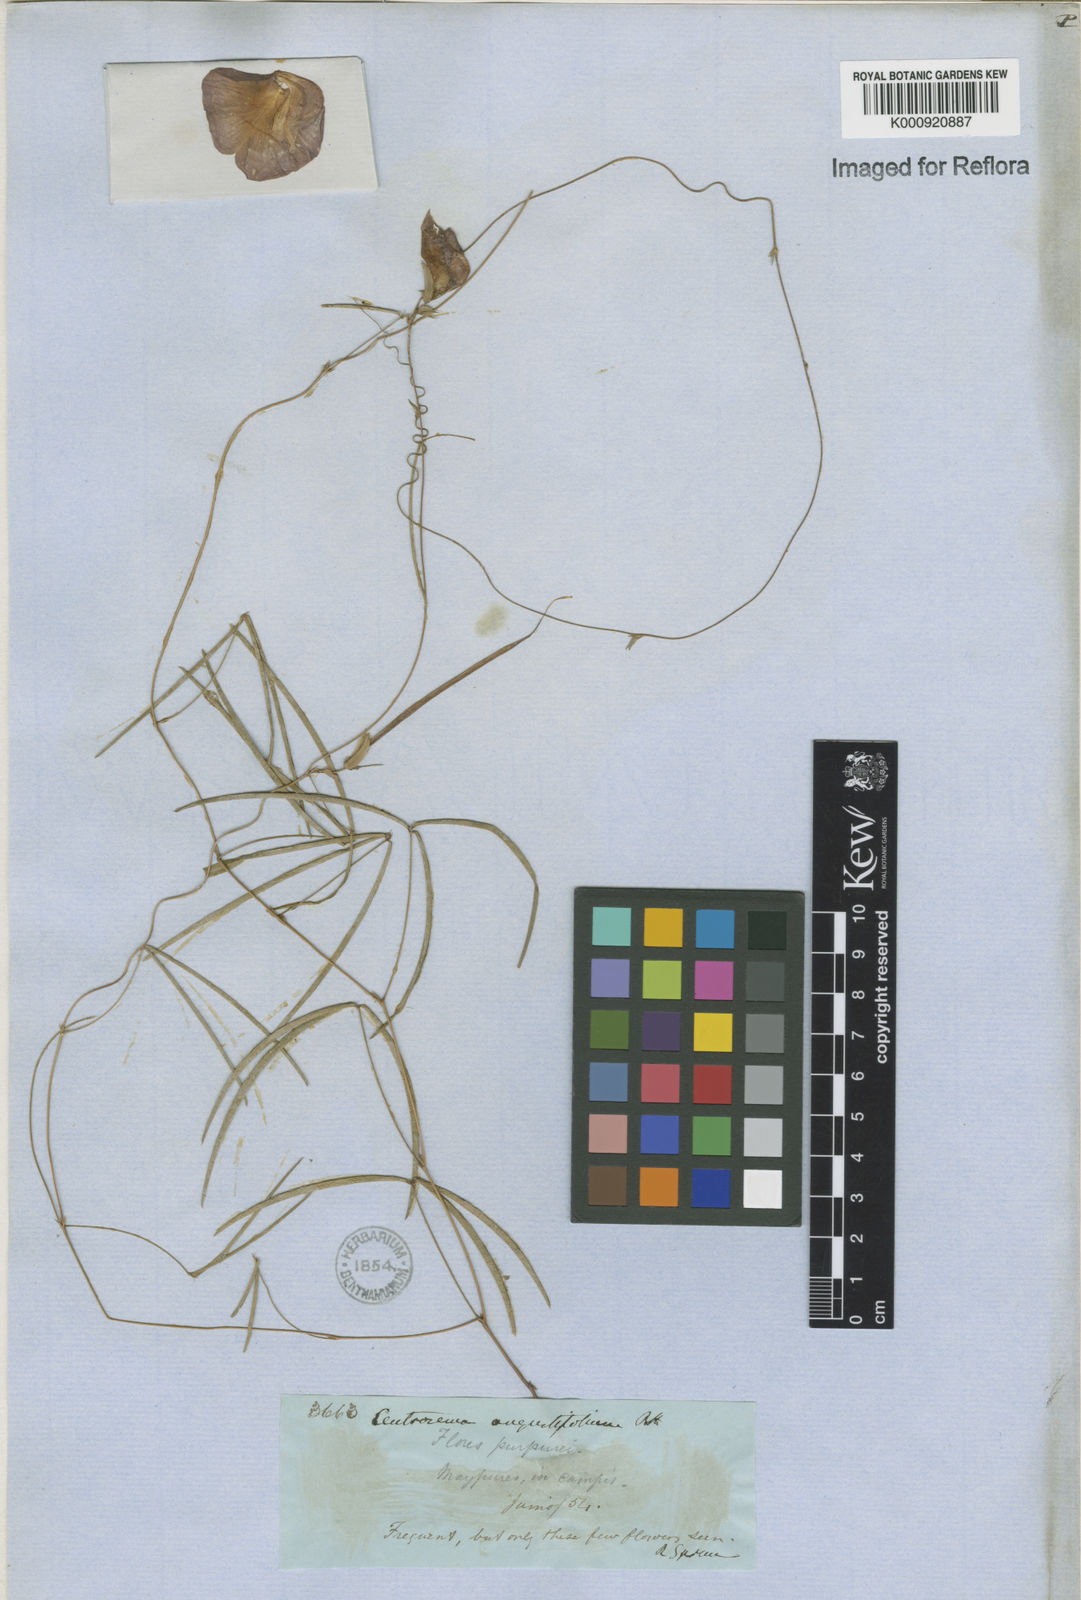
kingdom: Plantae
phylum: Tracheophyta
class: Magnoliopsida
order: Fabales
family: Fabaceae
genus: Centrosema
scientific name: Centrosema
